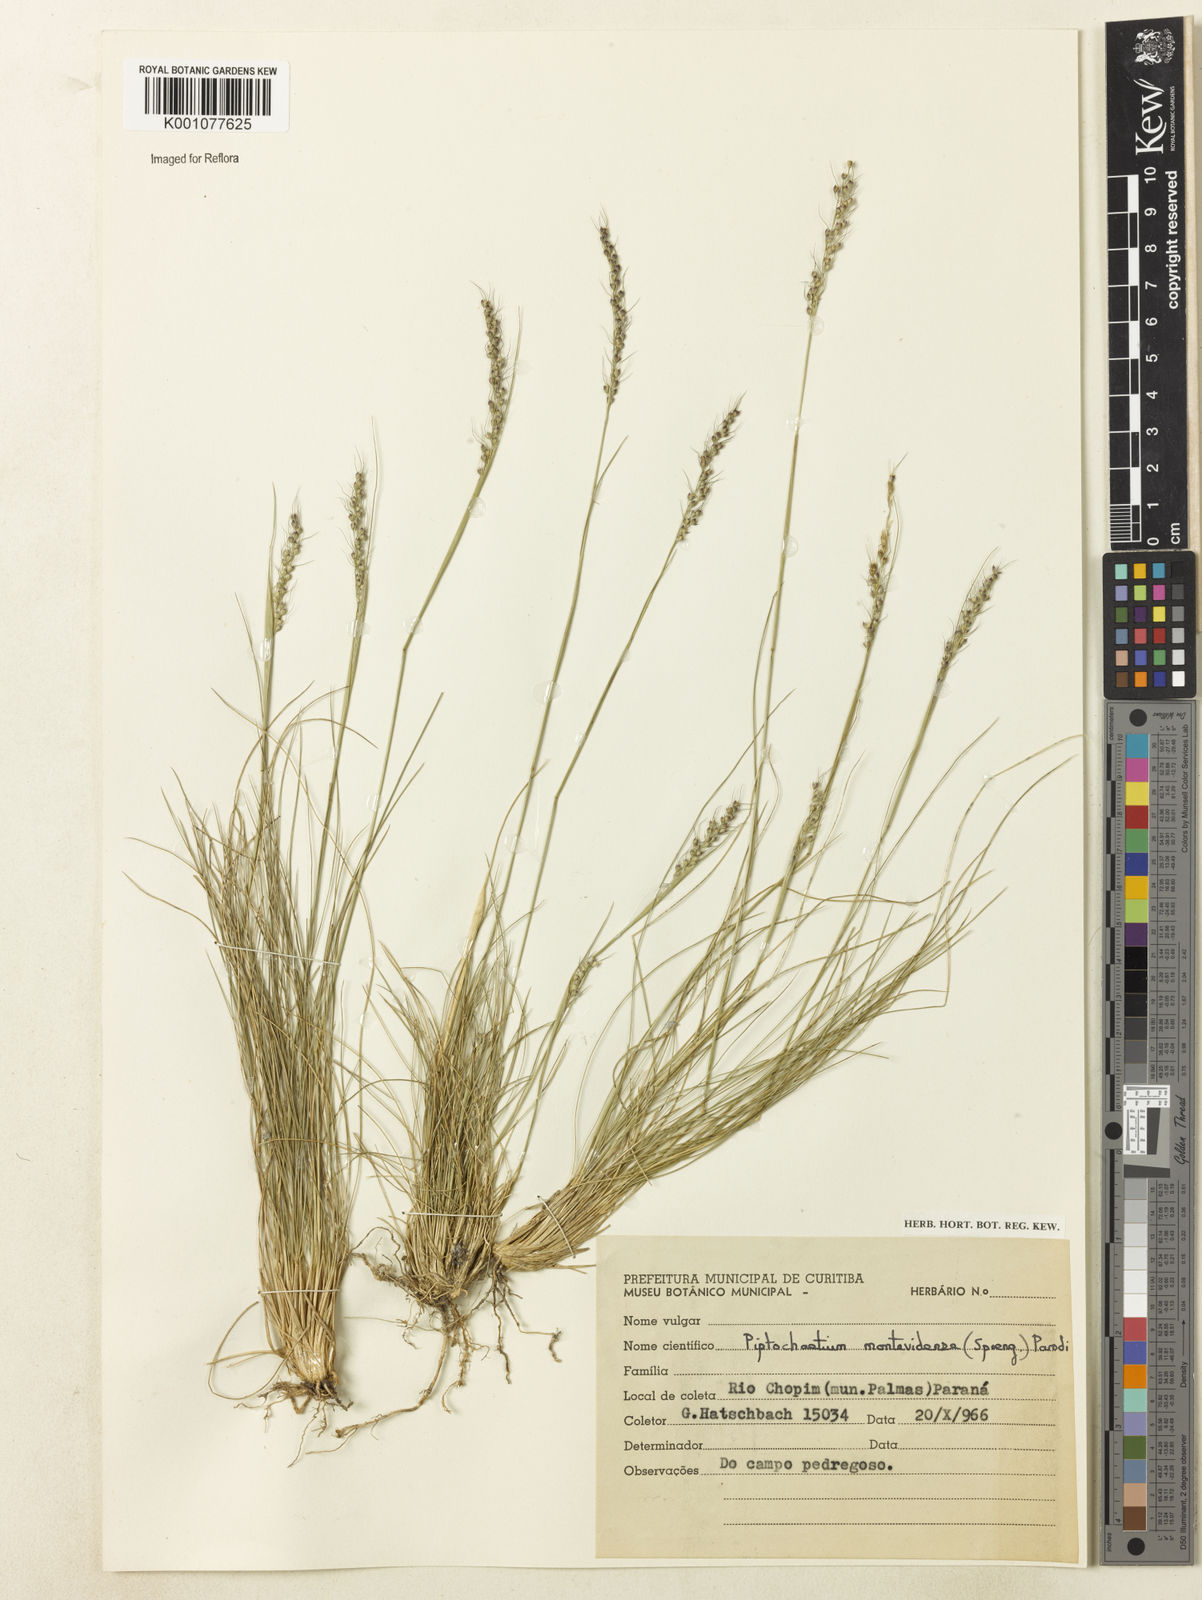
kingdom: Plantae
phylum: Tracheophyta
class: Liliopsida
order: Poales
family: Poaceae
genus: Piptochaetium
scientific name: Piptochaetium montevidense
